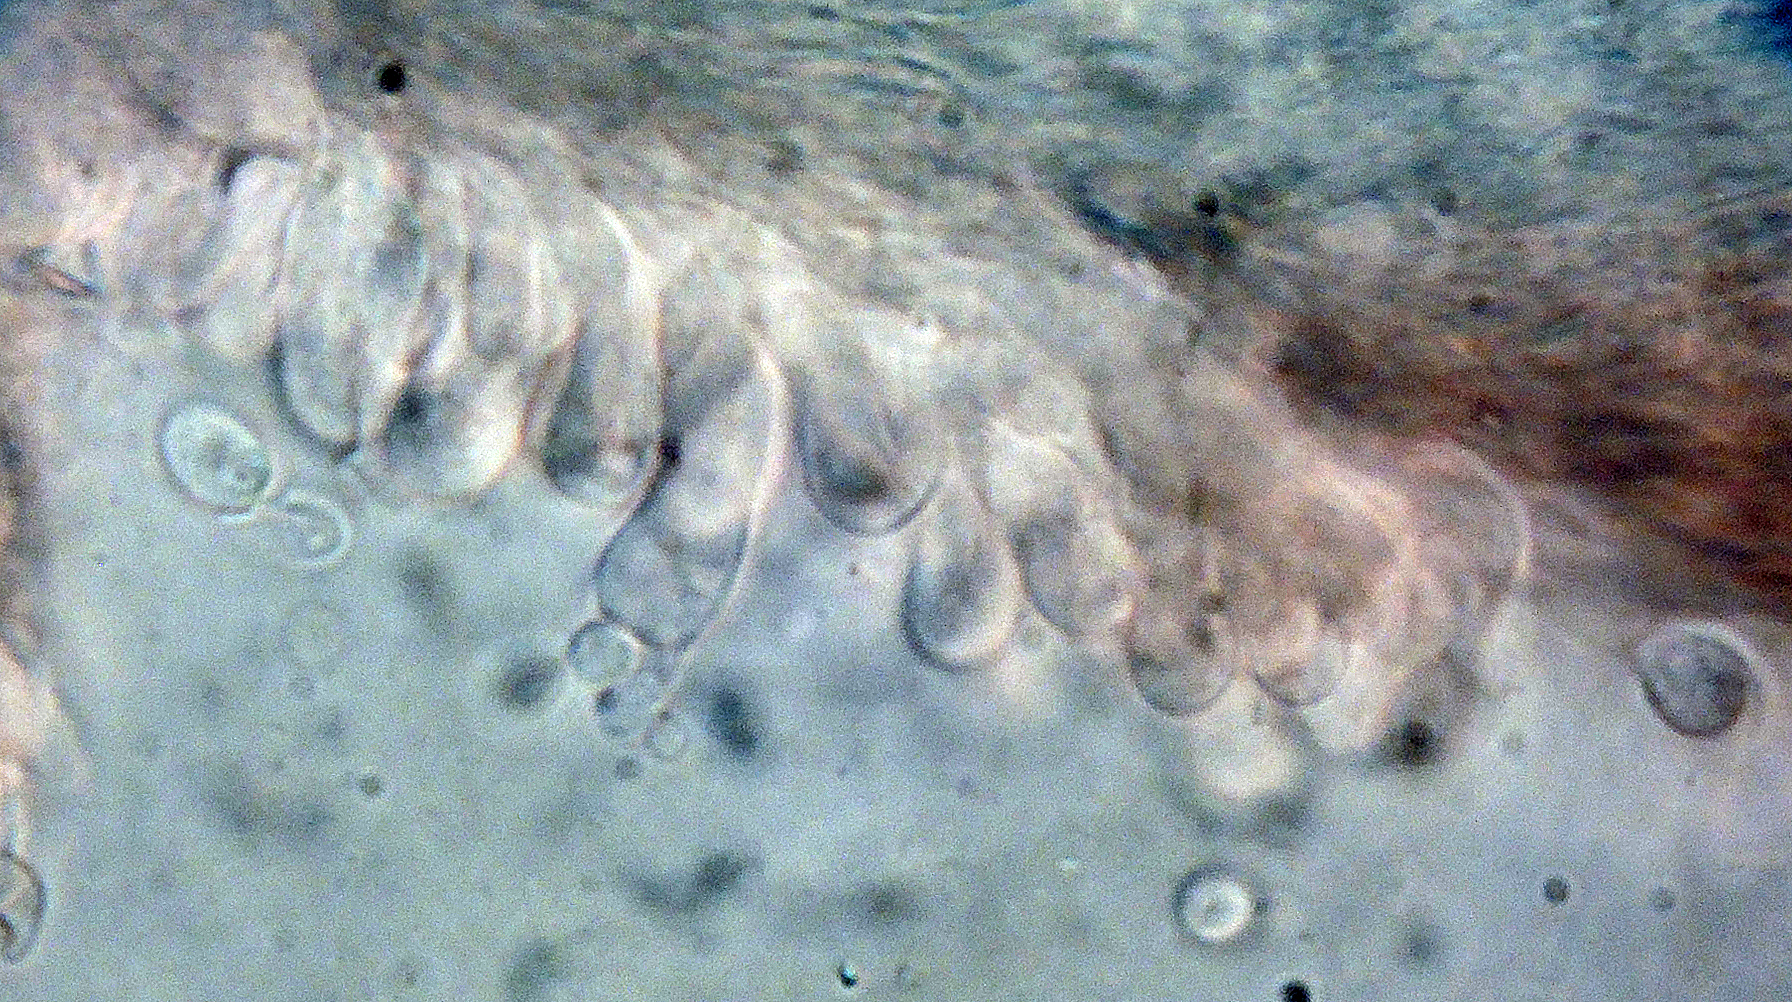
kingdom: Fungi
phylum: Basidiomycota
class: Agaricomycetes
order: Polyporales
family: Cerrenaceae
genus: Raduliporus
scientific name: Raduliporus aneirinus
